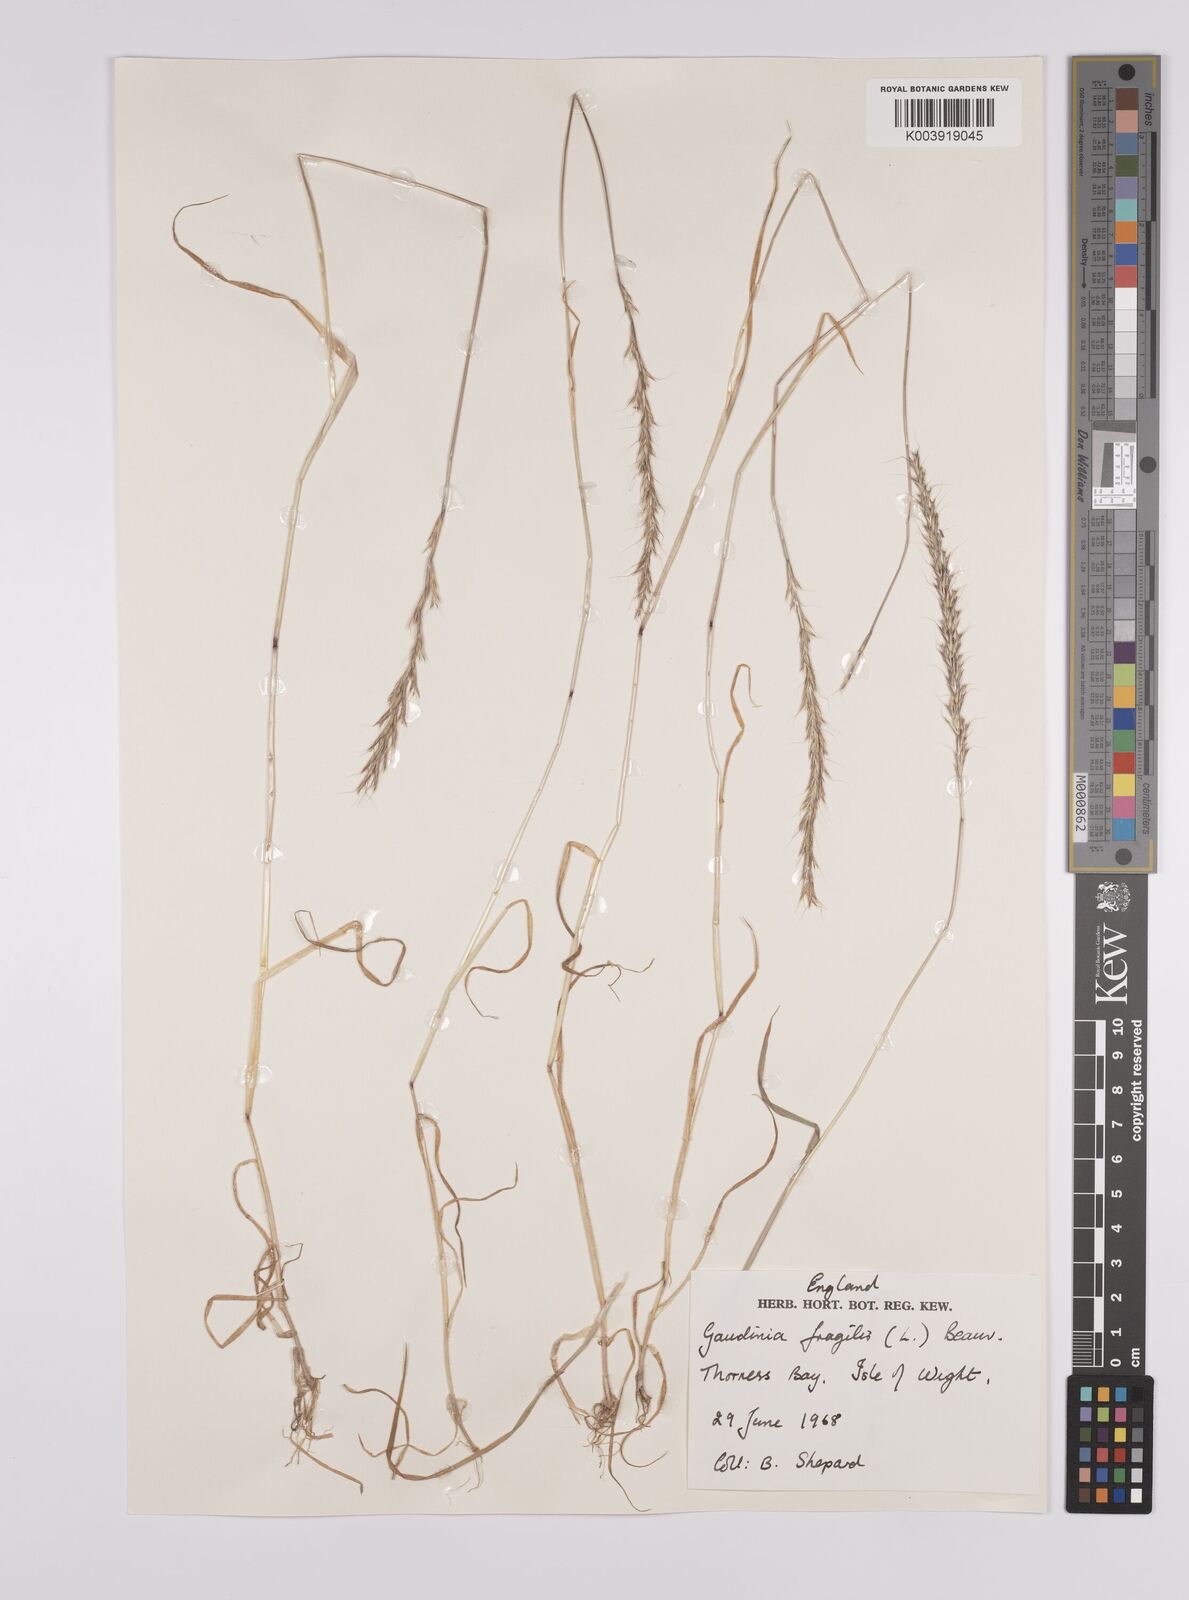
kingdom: Plantae
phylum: Tracheophyta
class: Liliopsida
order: Poales
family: Poaceae
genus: Gaudinia
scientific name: Gaudinia fragilis
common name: French oat-grass
